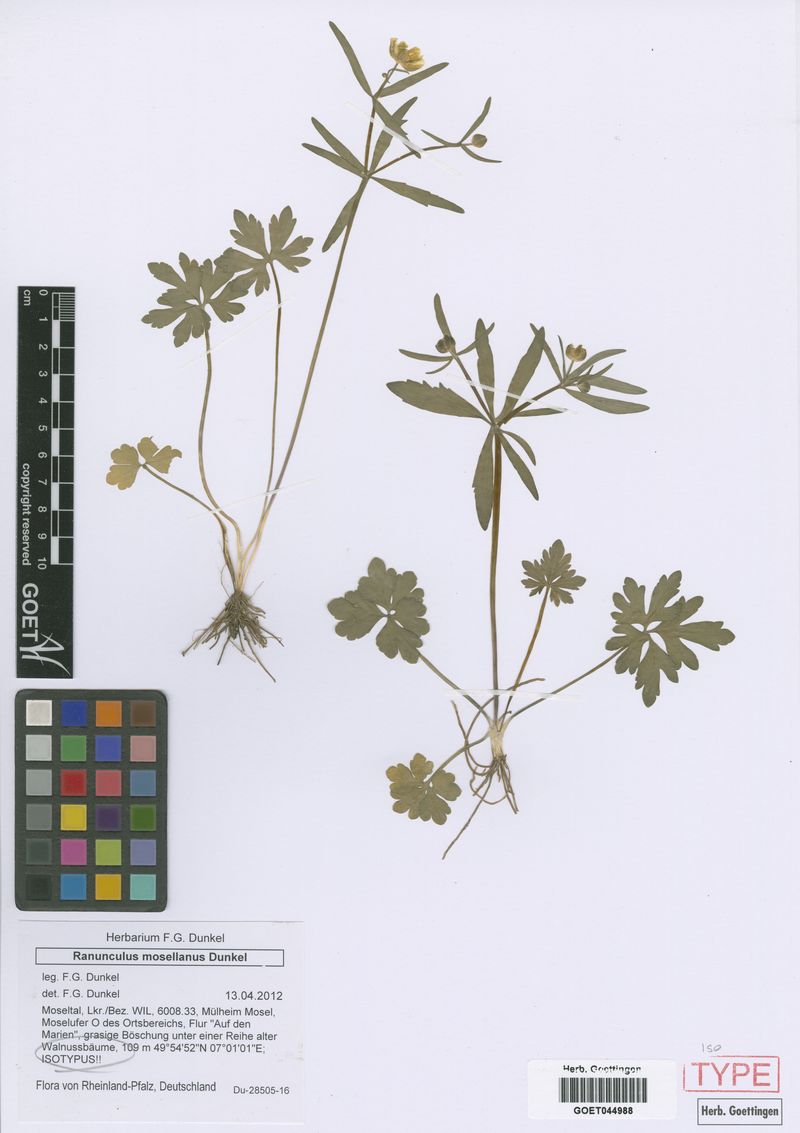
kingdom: Plantae
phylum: Tracheophyta
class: Magnoliopsida
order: Ranunculales
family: Ranunculaceae
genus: Ranunculus
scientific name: Ranunculus mosellanus
